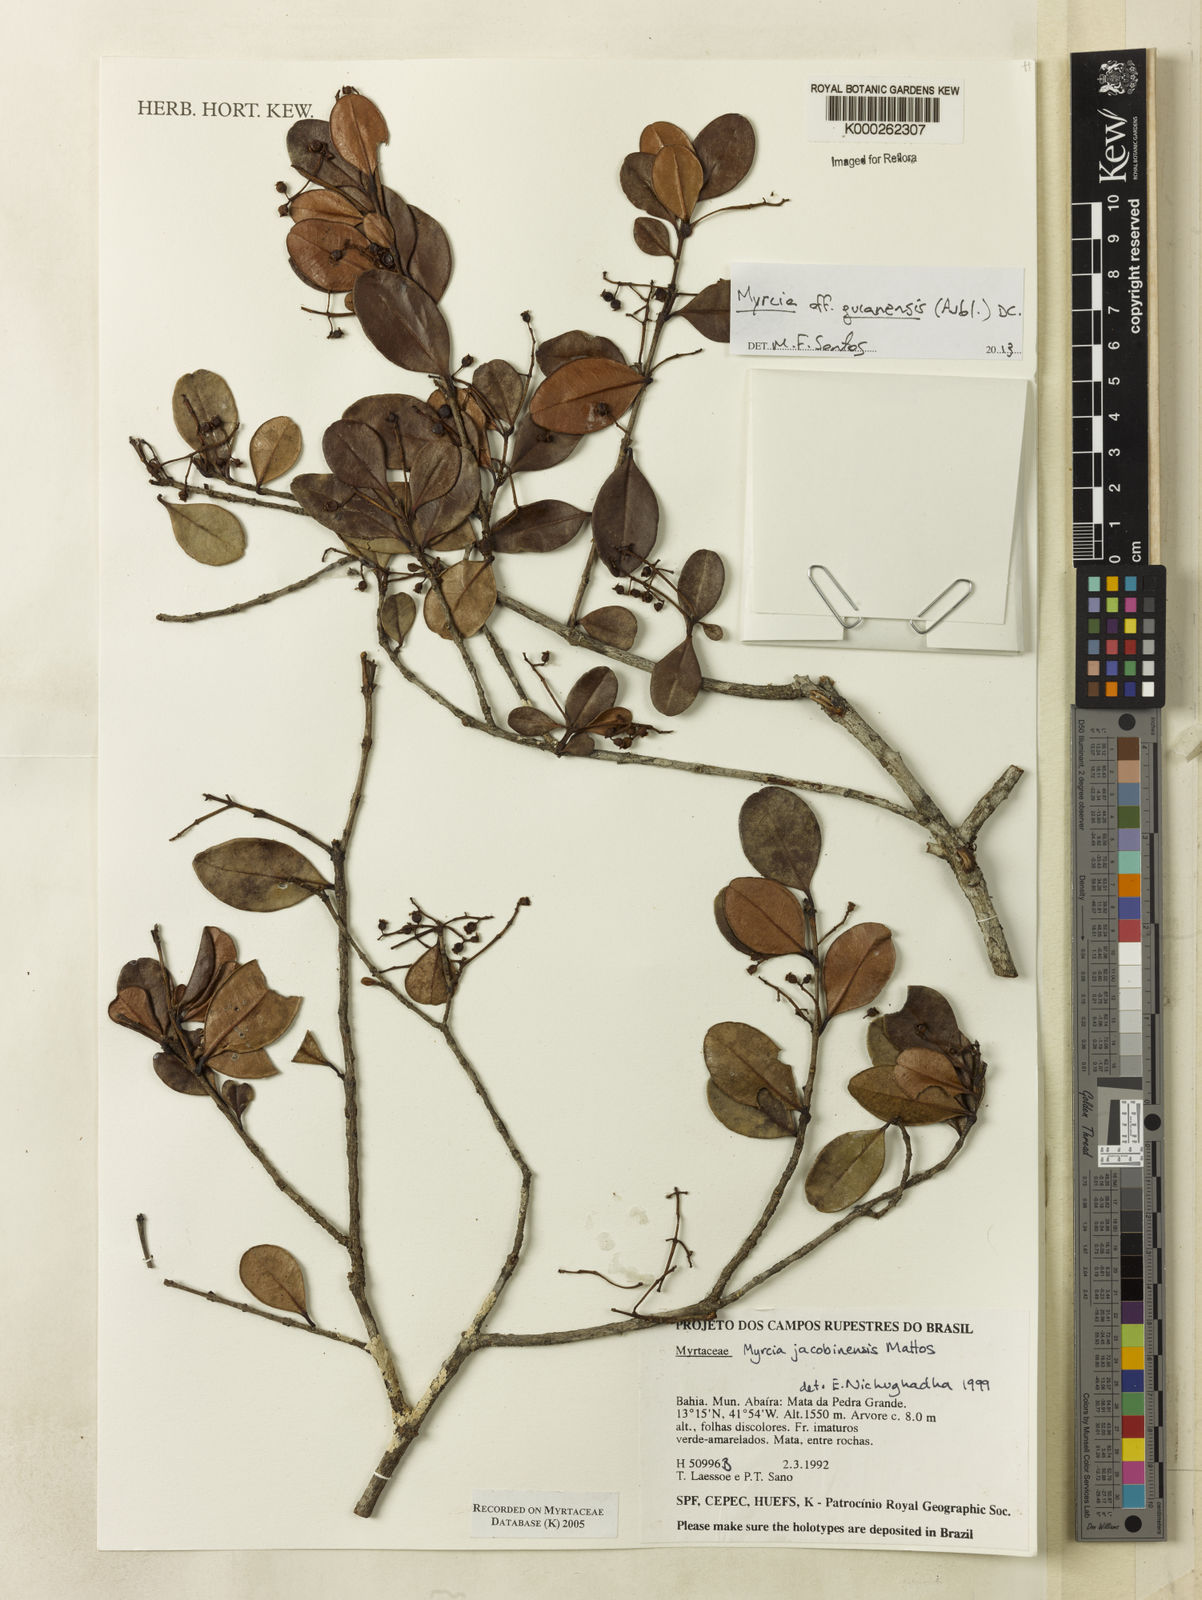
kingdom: Plantae
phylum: Tracheophyta
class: Magnoliopsida
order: Myrtales
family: Myrtaceae
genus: Myrcia
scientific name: Myrcia jacobinensis
